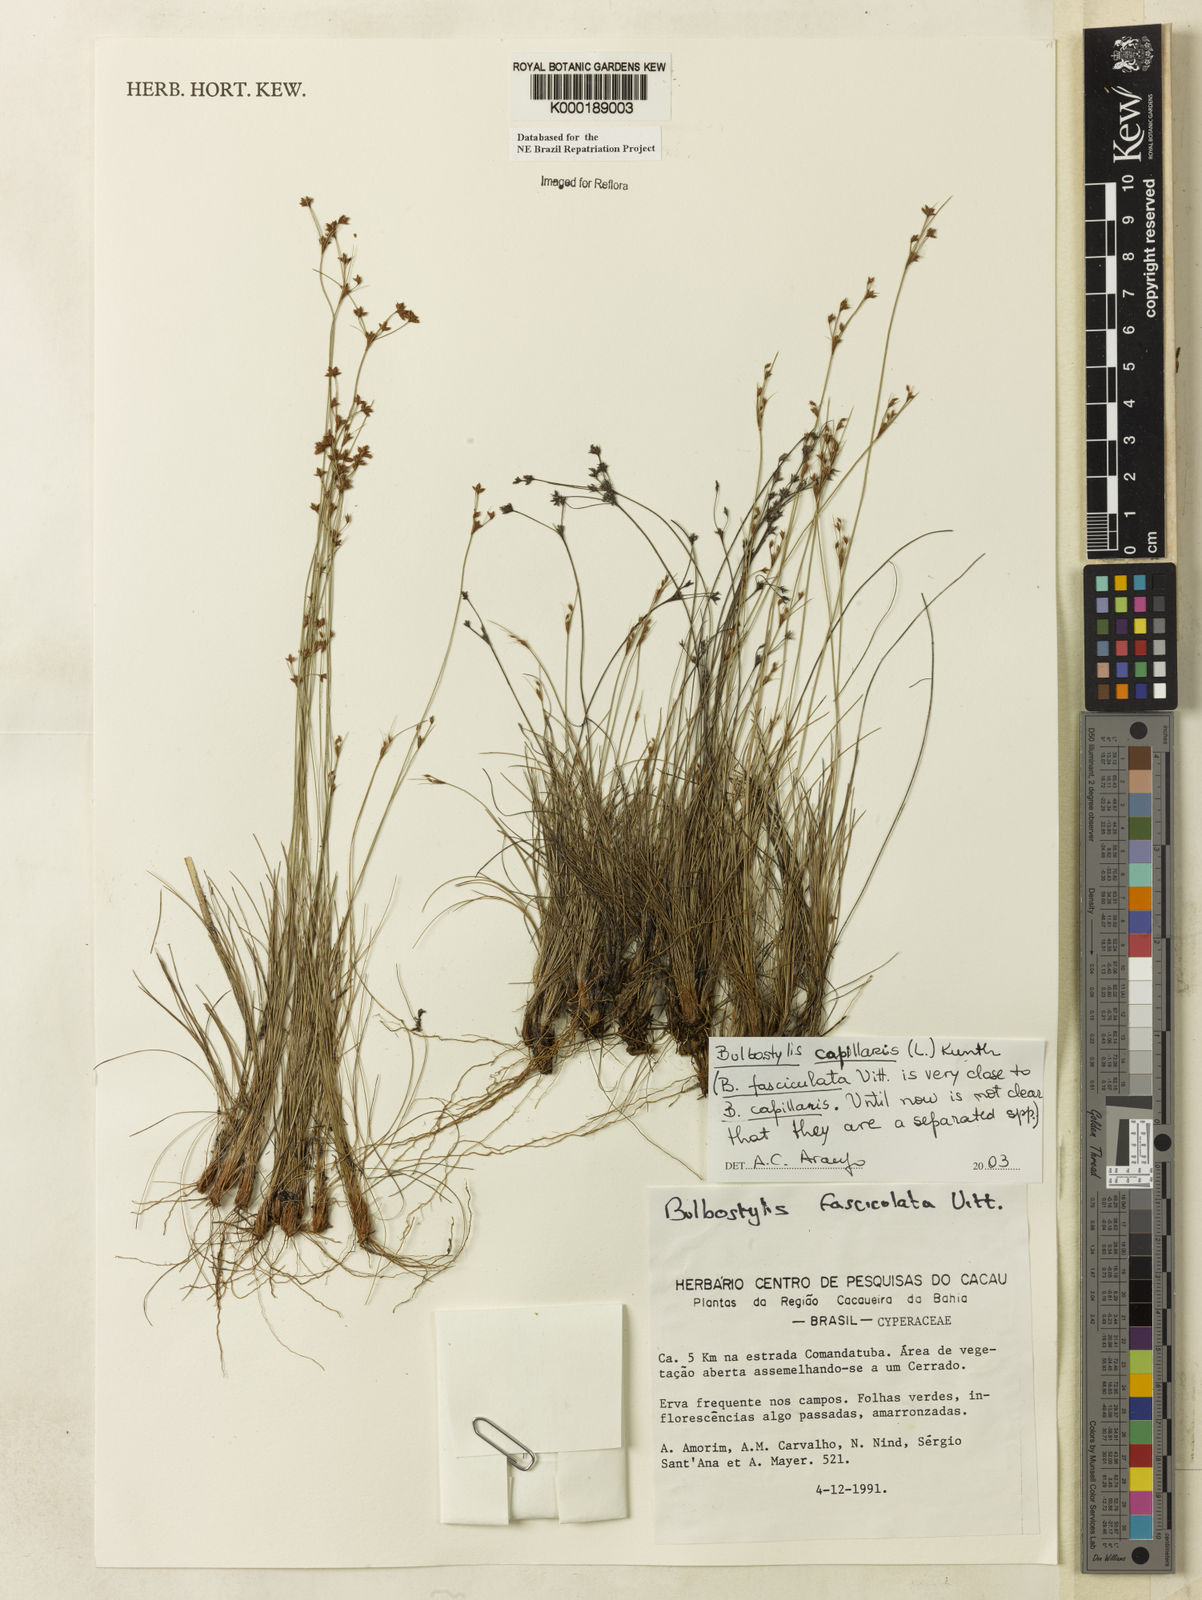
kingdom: Plantae
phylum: Tracheophyta
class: Liliopsida
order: Poales
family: Cyperaceae
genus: Bulbostylis
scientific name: Bulbostylis capillaris
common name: Densetuft hairsedge
